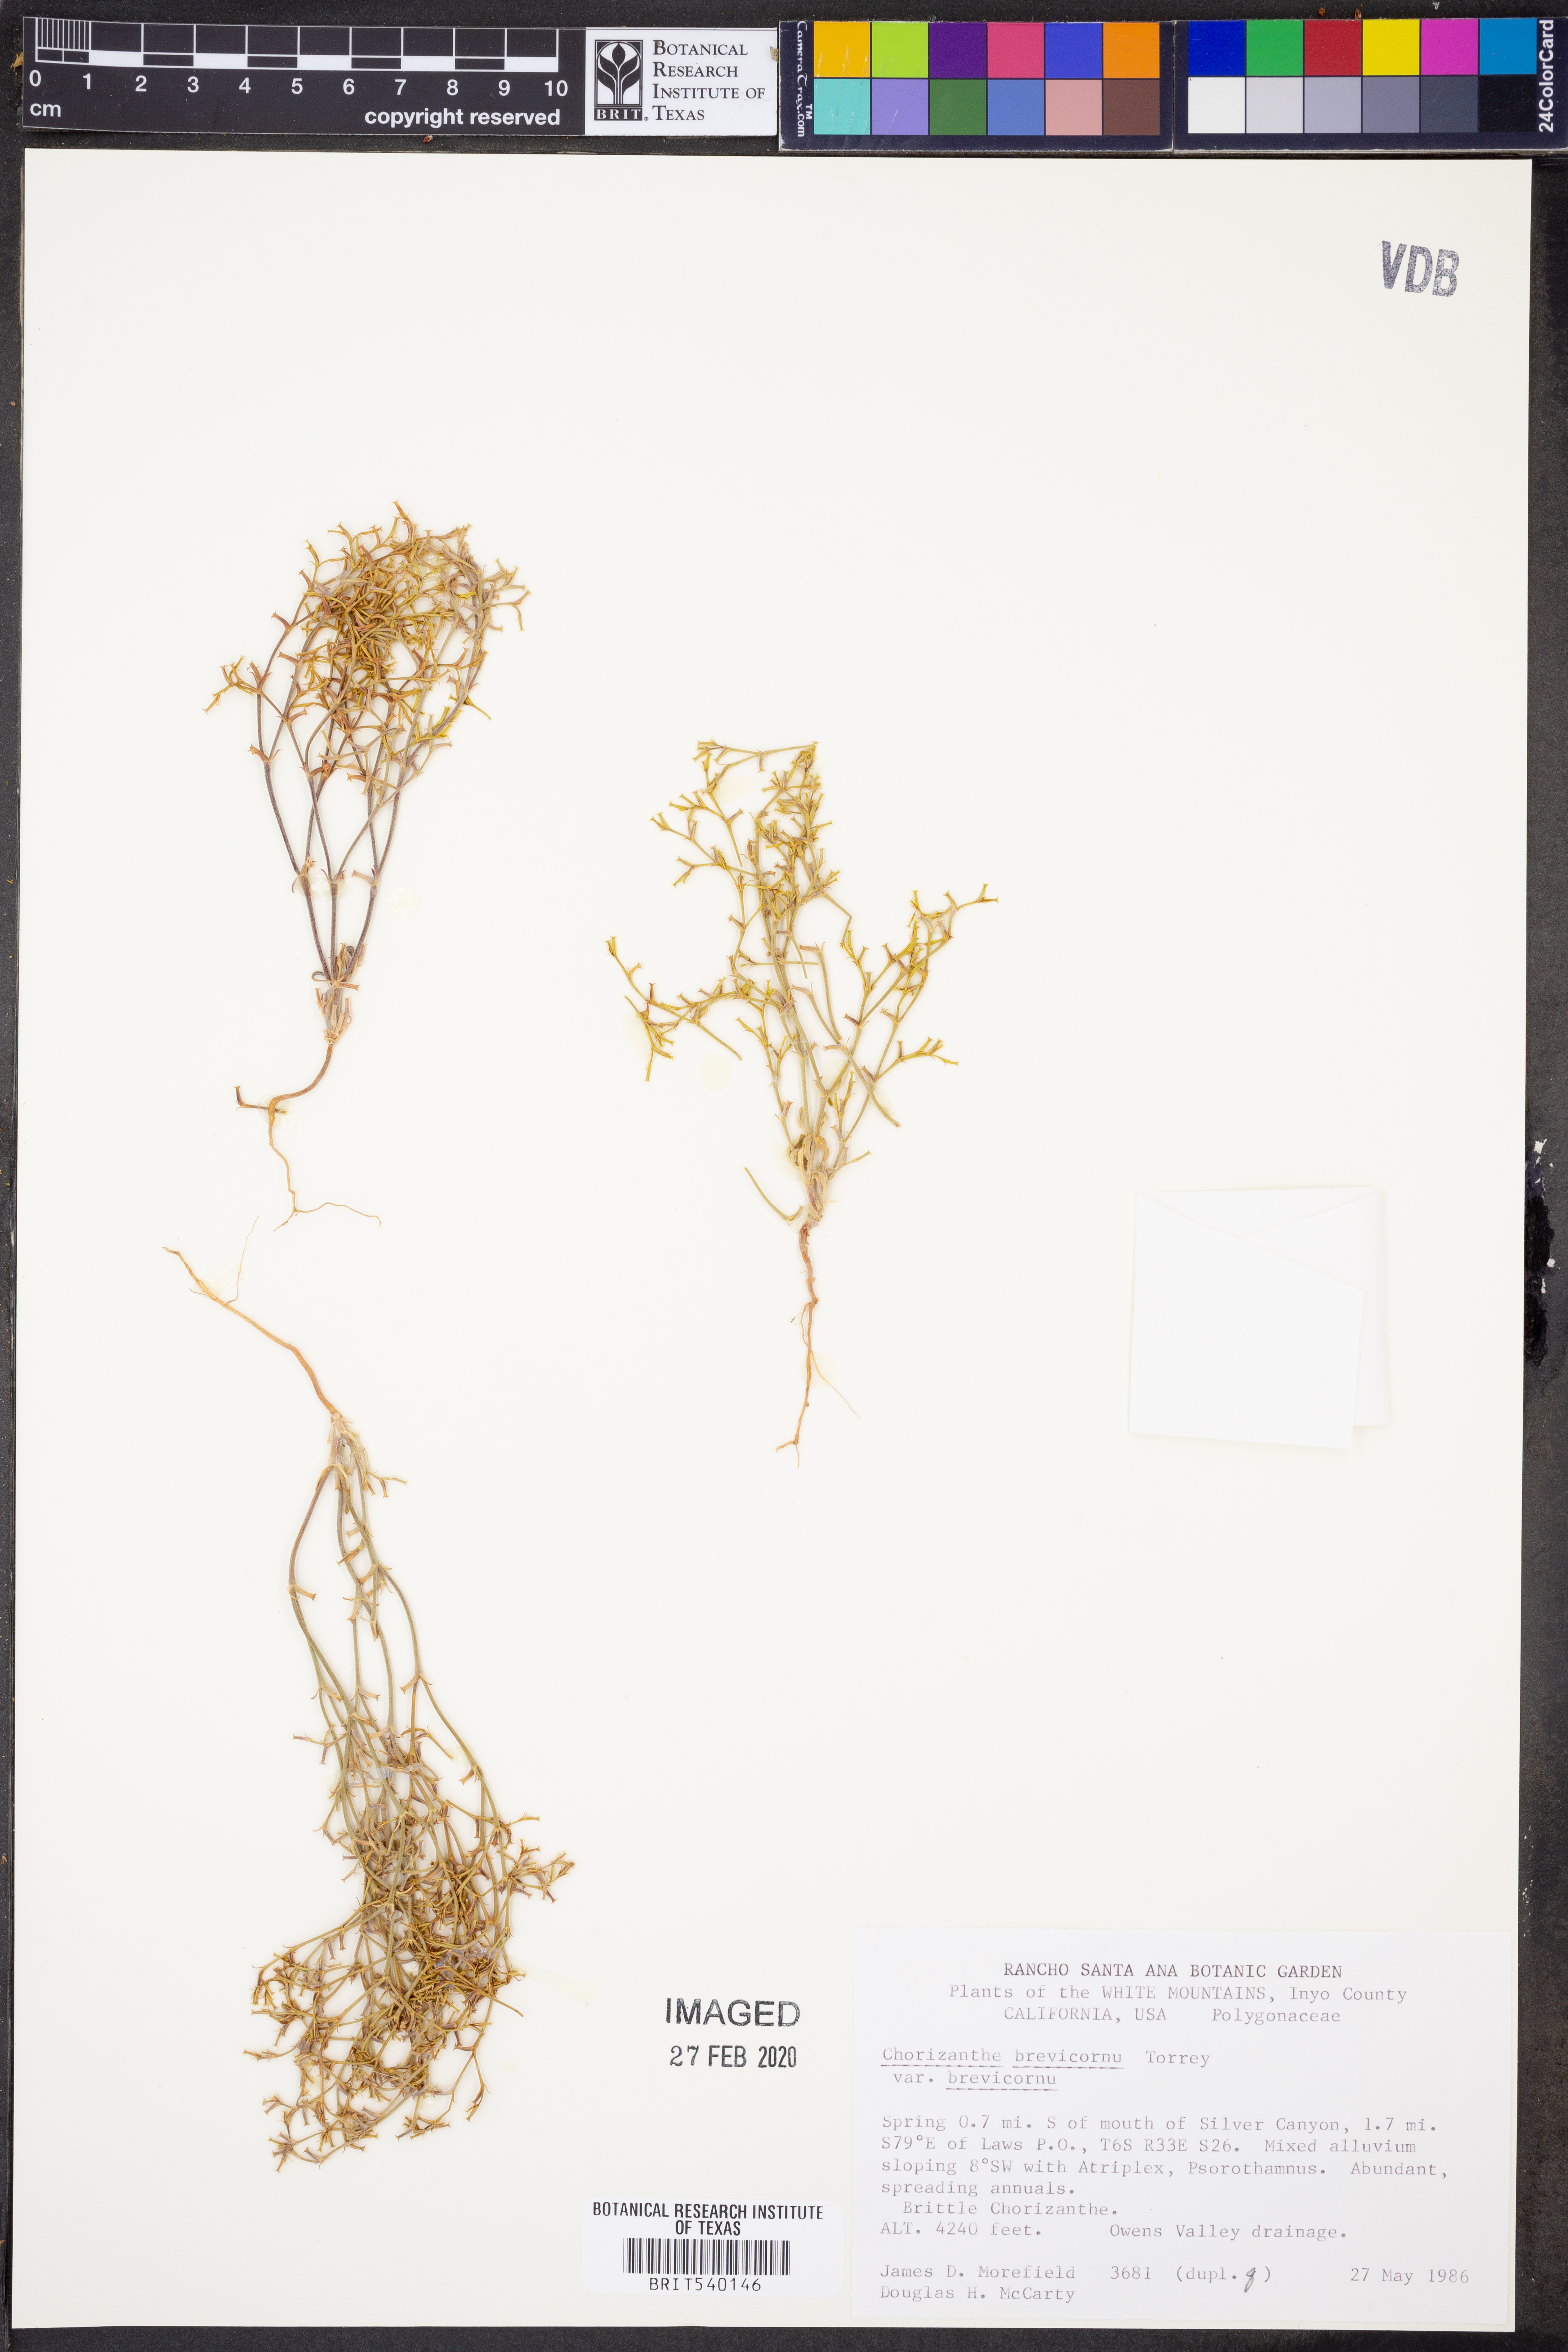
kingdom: Plantae
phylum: Tracheophyta
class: Magnoliopsida
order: Caryophyllales
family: Polygonaceae
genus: Chorizanthe
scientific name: Chorizanthe brevicornu
